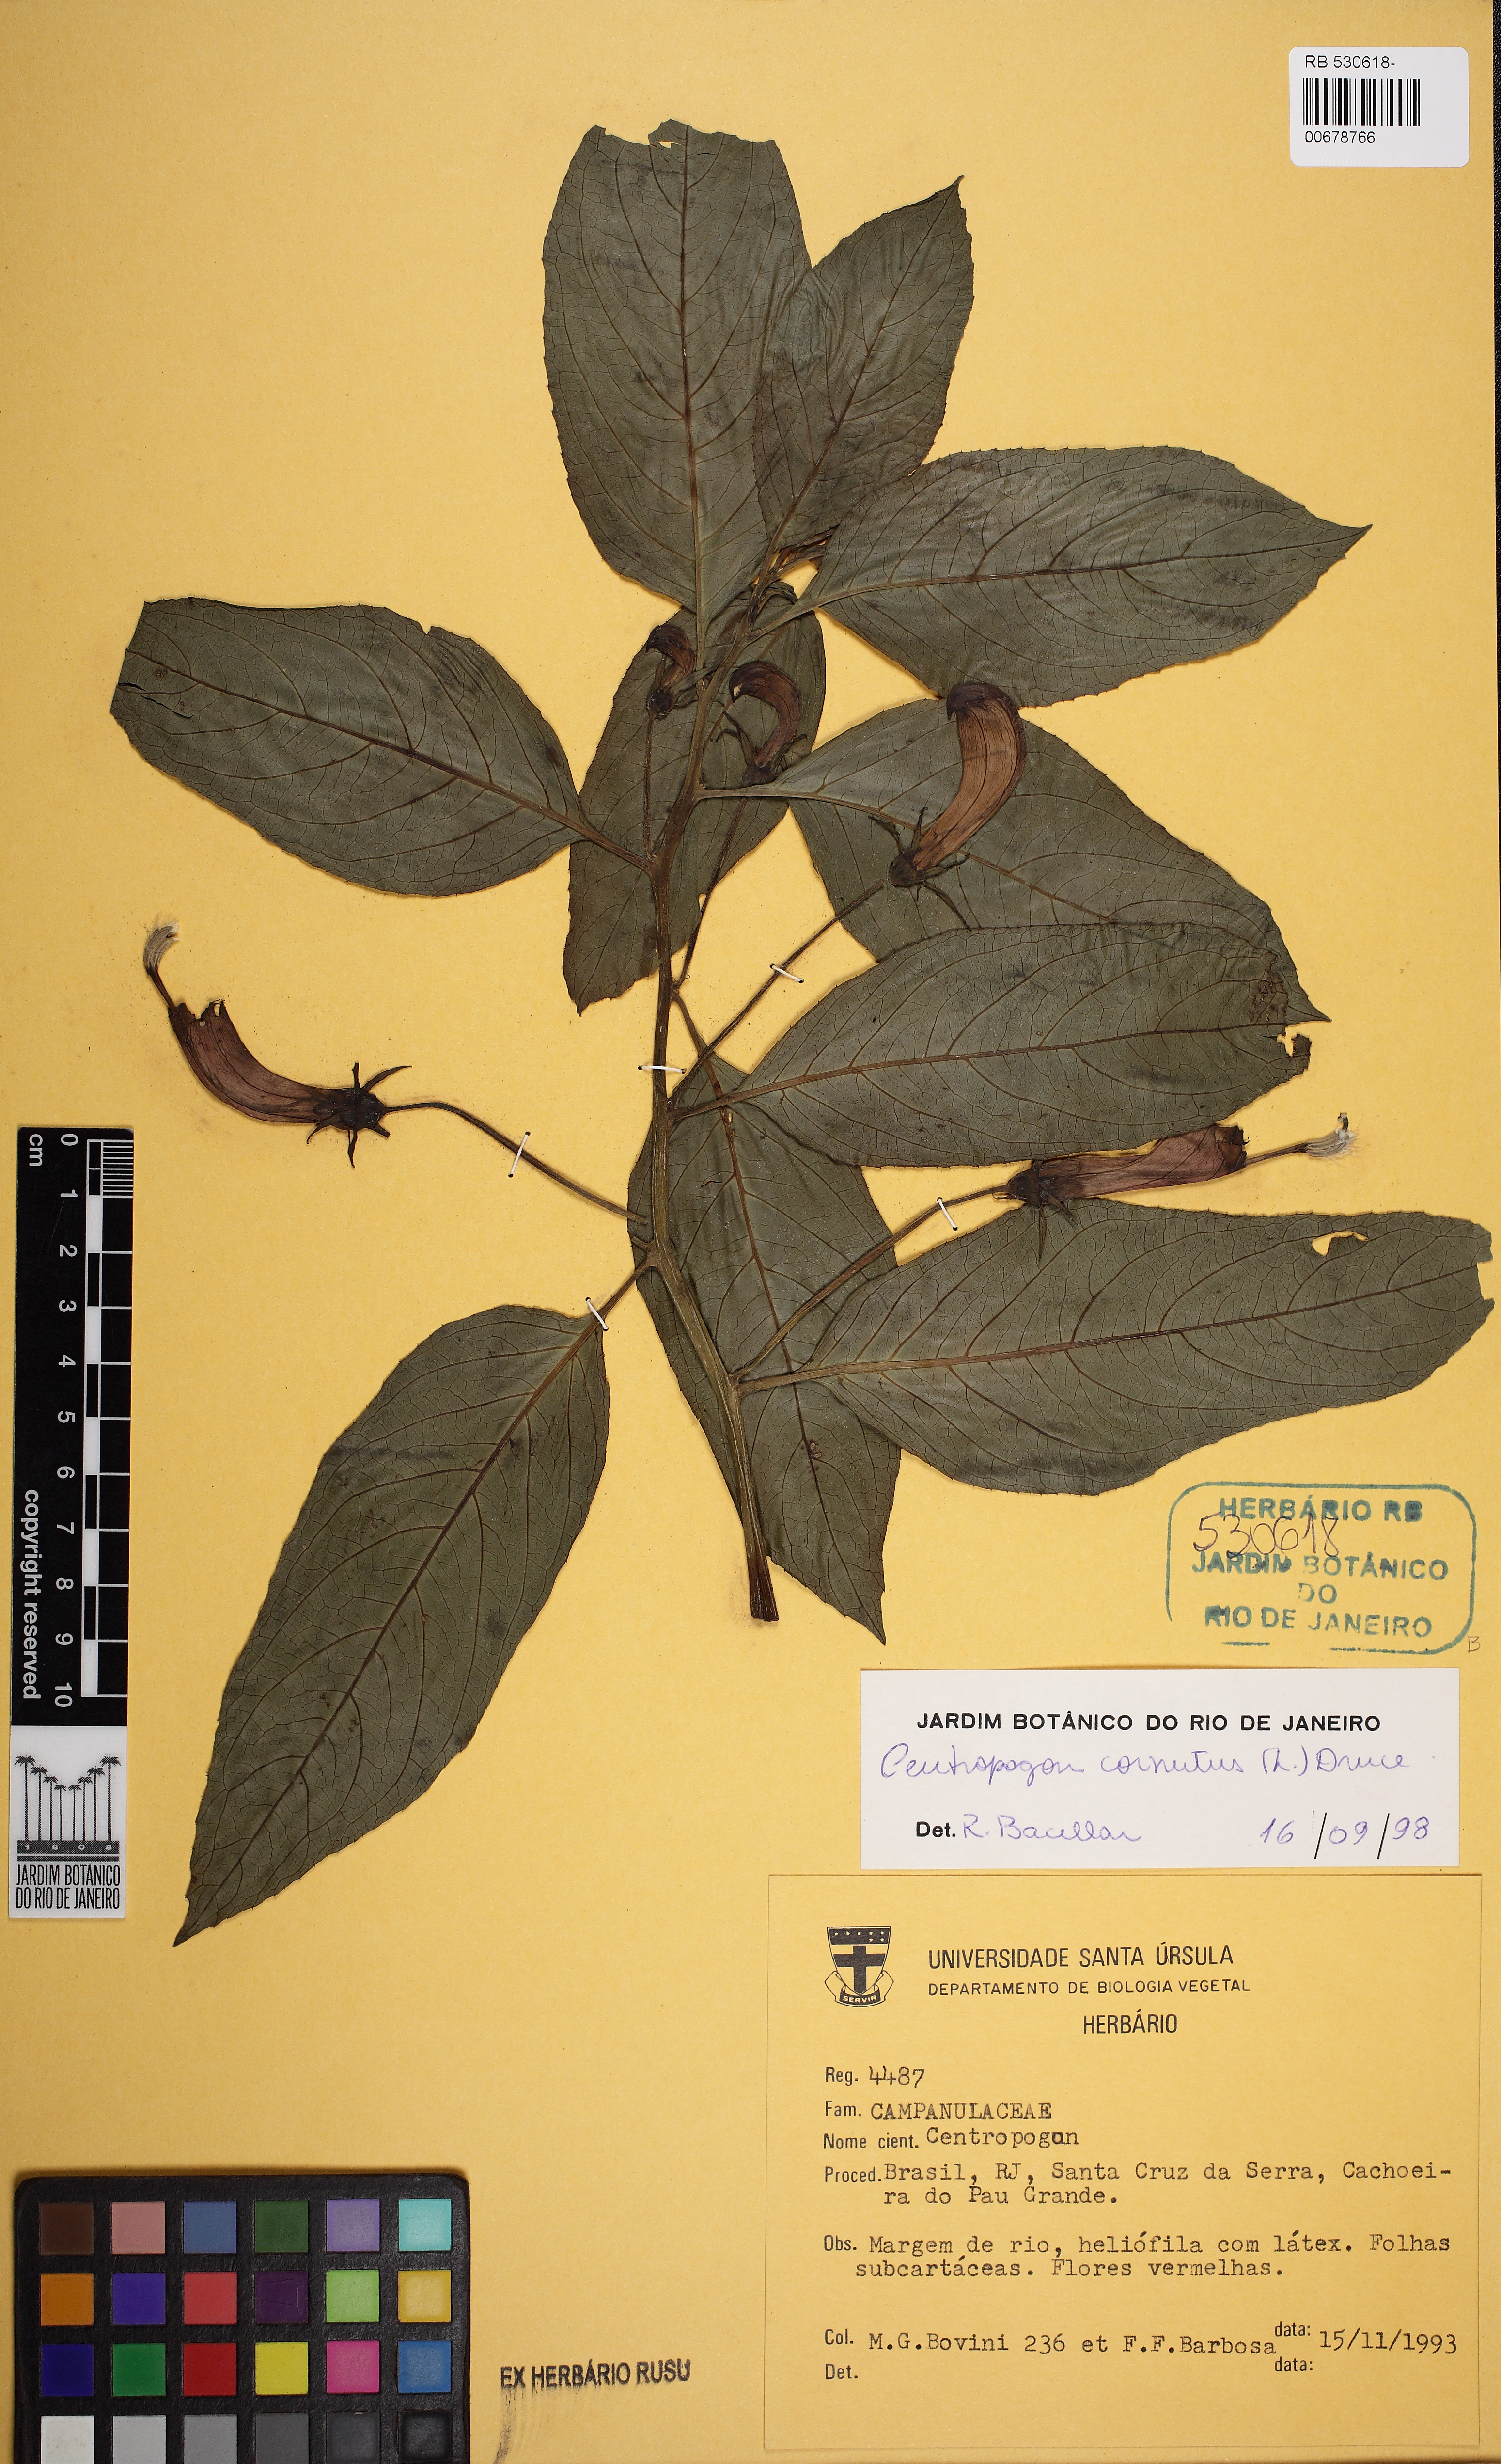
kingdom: Plantae
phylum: Tracheophyta
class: Magnoliopsida
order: Asterales
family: Campanulaceae
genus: Centropogon
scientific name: Centropogon cornutus
